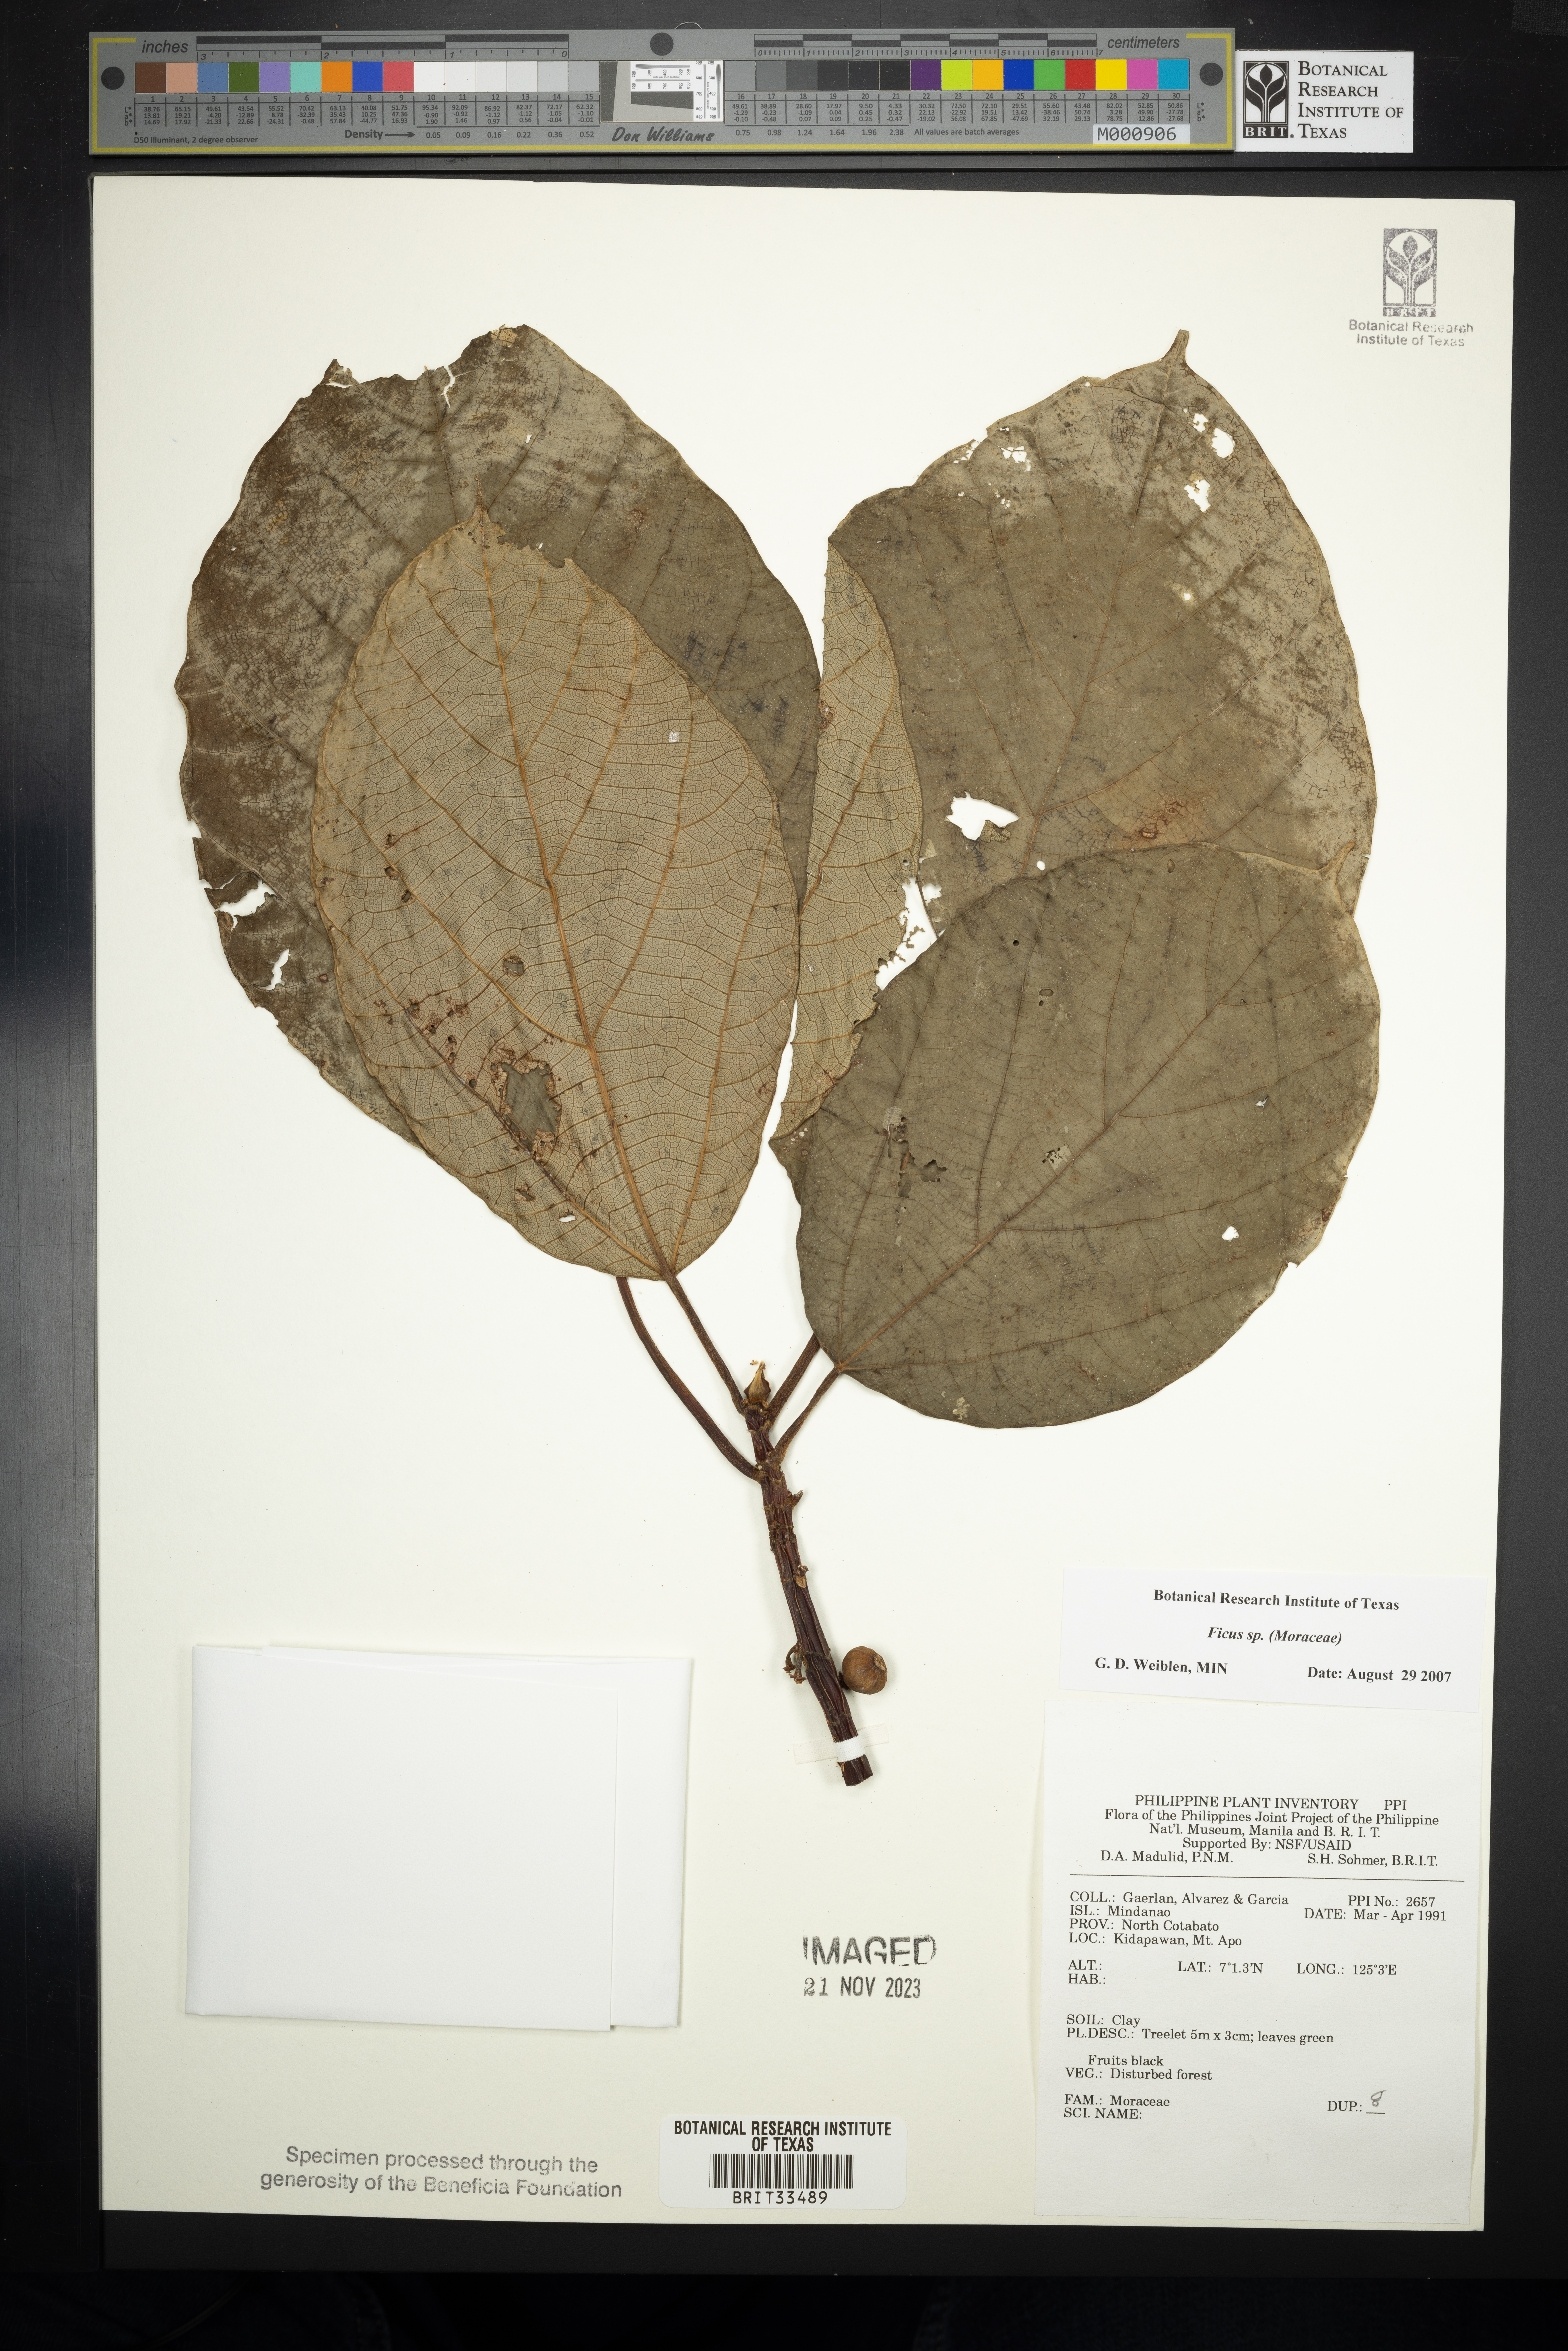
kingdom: Plantae
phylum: Tracheophyta
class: Magnoliopsida
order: Rosales
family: Moraceae
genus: Ficus
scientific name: Ficus
